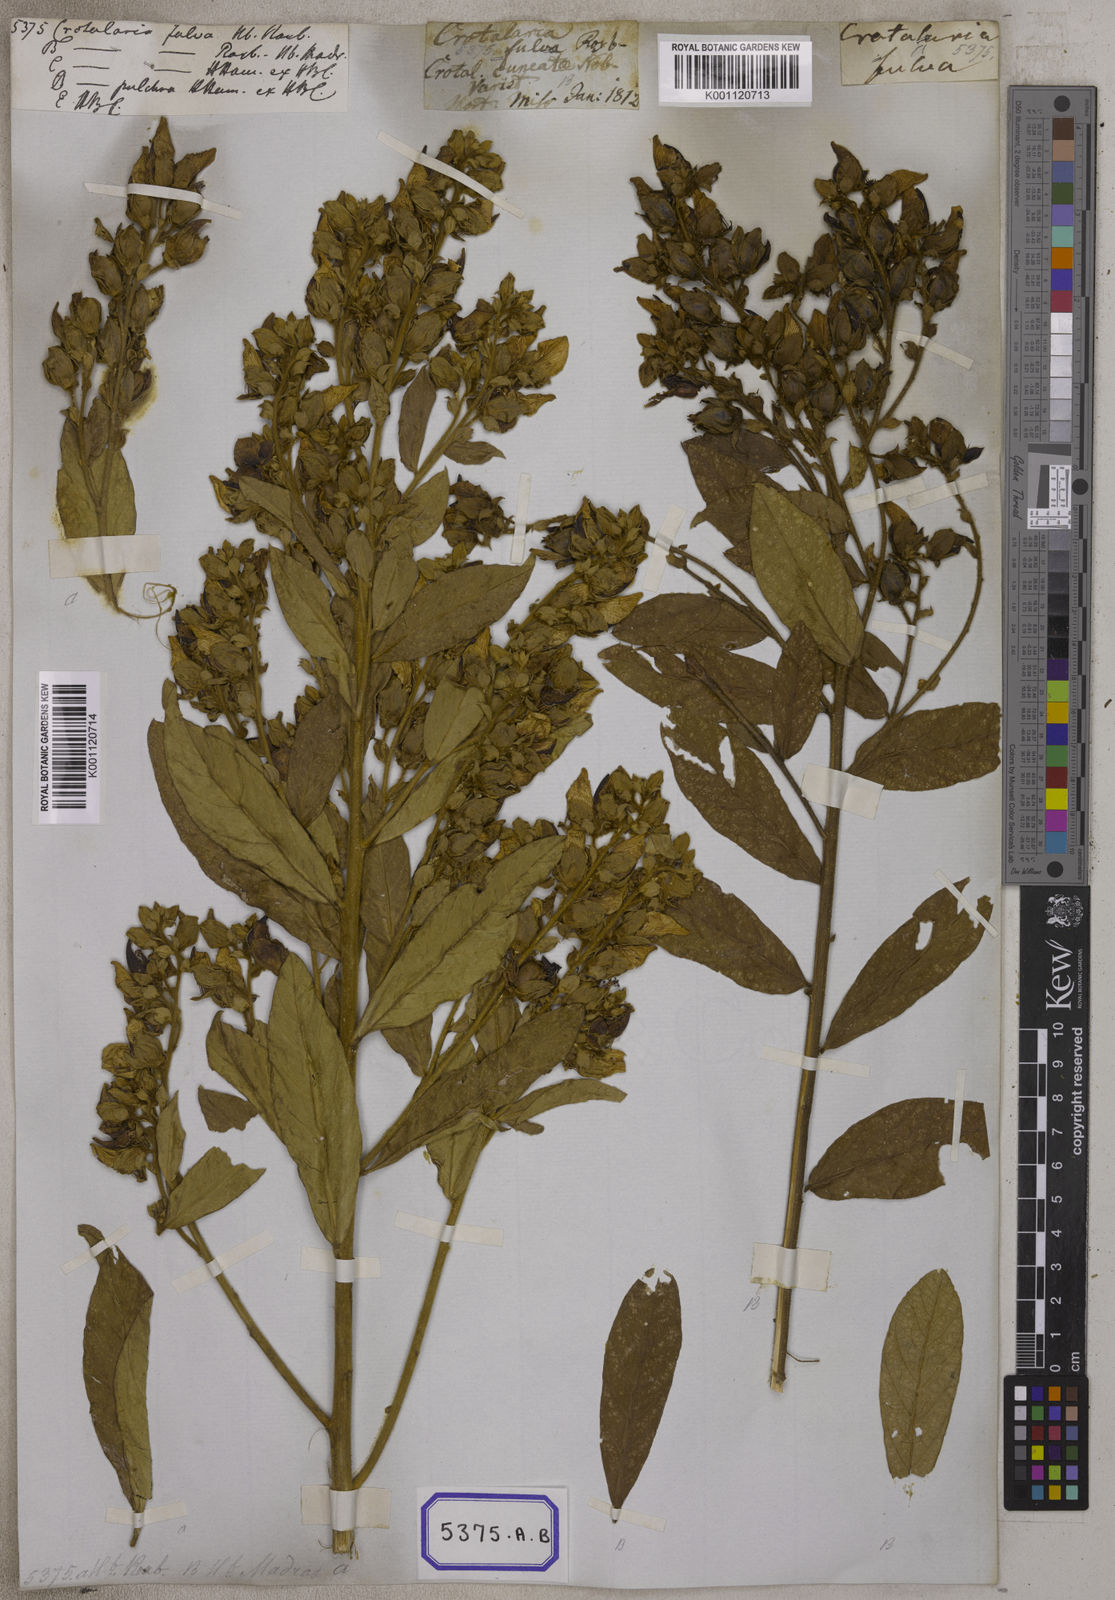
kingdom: Plantae
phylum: Tracheophyta
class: Magnoliopsida
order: Fabales
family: Fabaceae
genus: Crotalaria
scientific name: Crotalaria berteroana
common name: Berteron's rattlebox
